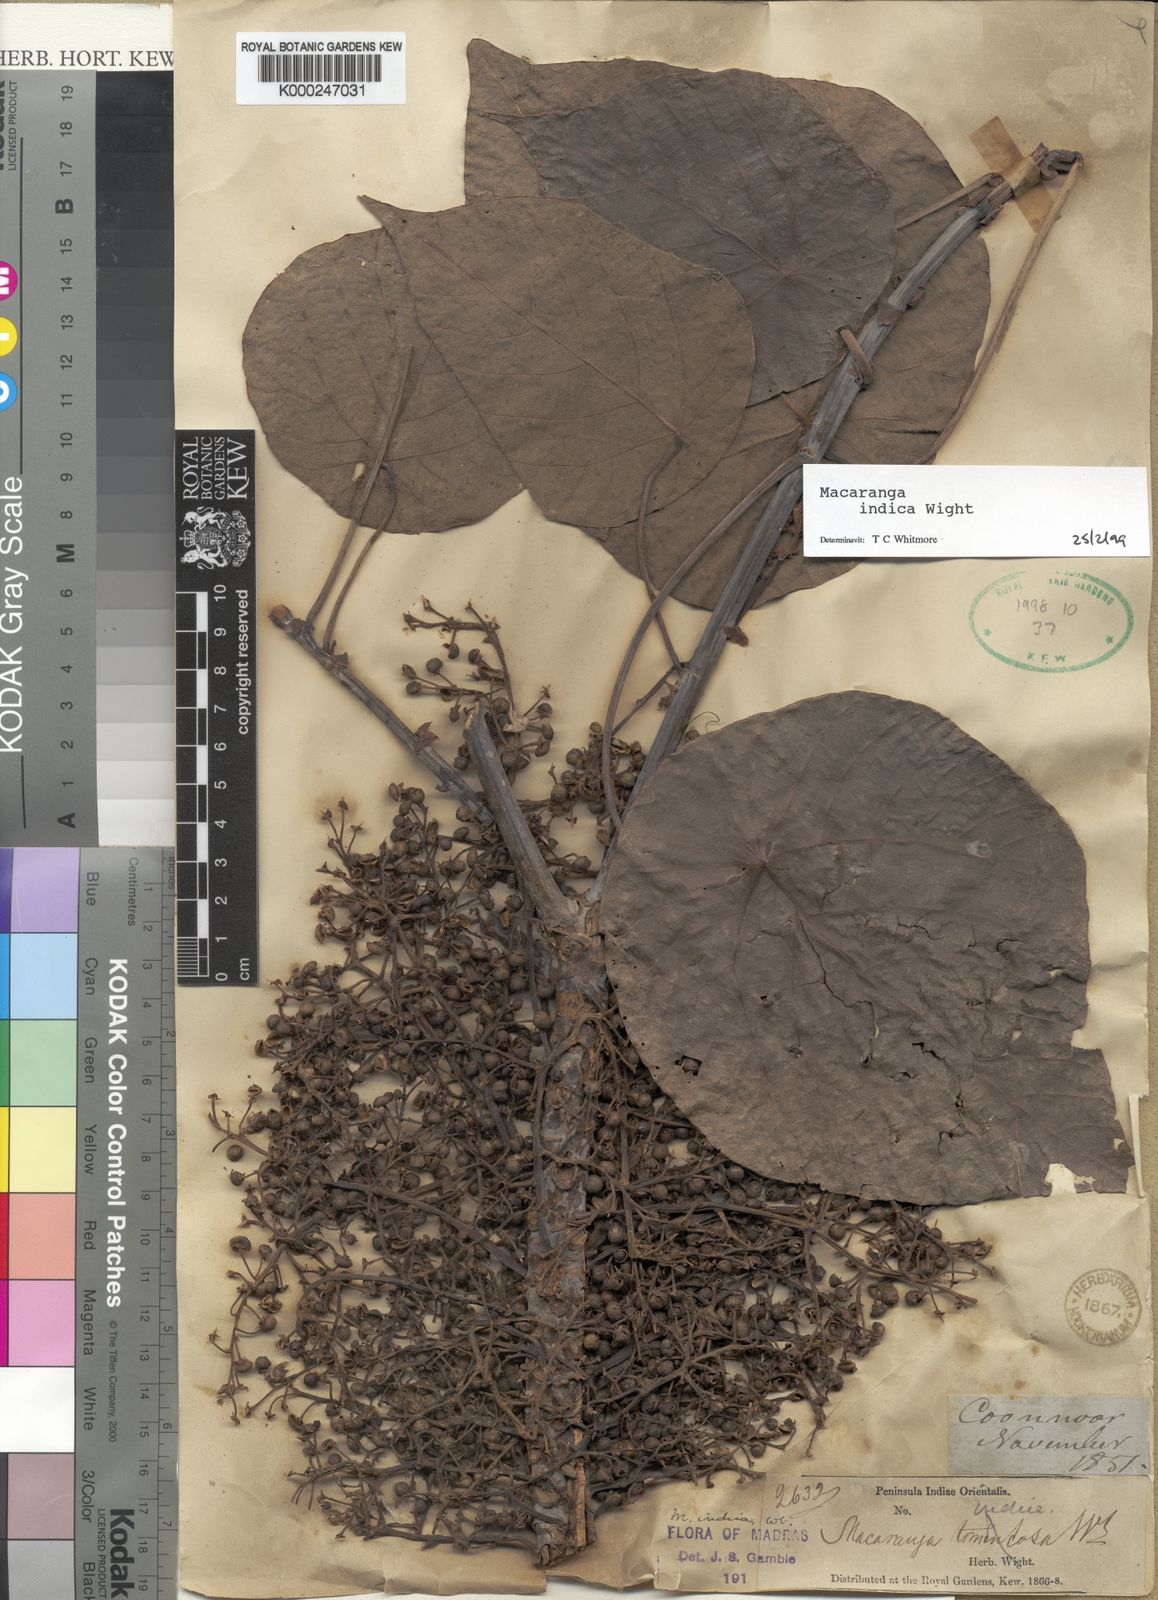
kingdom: Plantae
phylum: Tracheophyta
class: Magnoliopsida
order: Malpighiales
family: Euphorbiaceae
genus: Macaranga
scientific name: Macaranga indica
